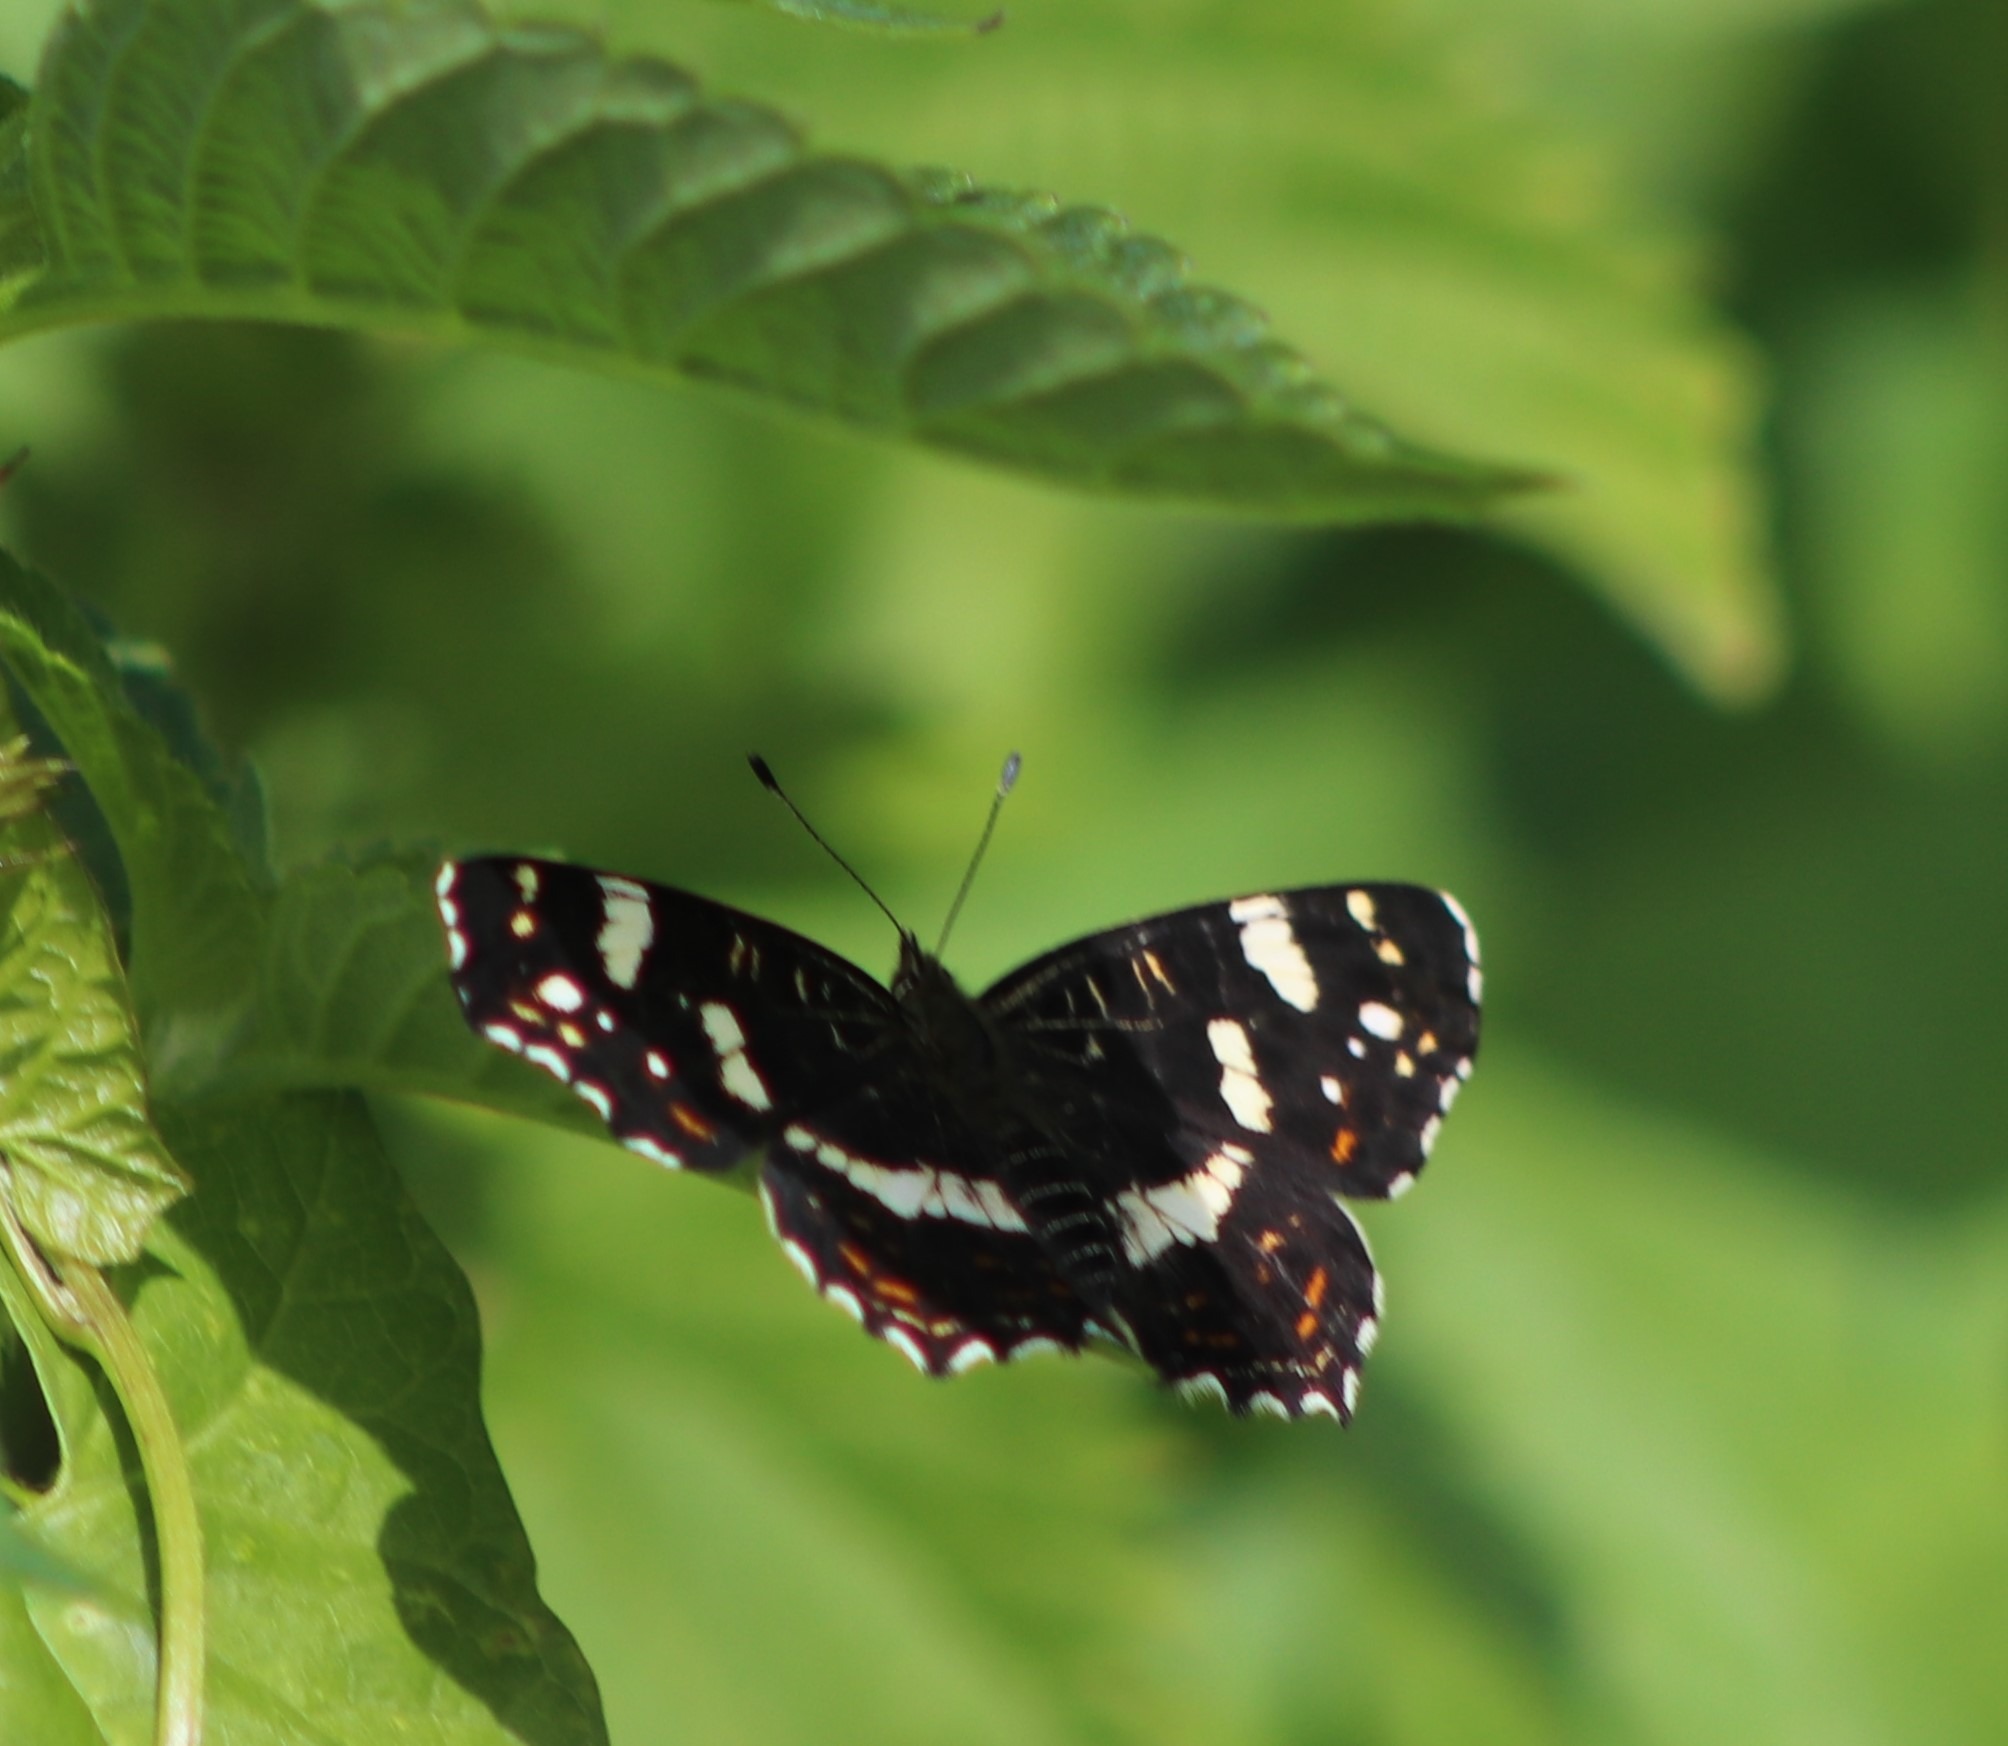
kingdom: Animalia
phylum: Arthropoda
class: Insecta
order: Lepidoptera
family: Nymphalidae
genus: Araschnia
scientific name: Araschnia levana
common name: Nældesommerfugl
